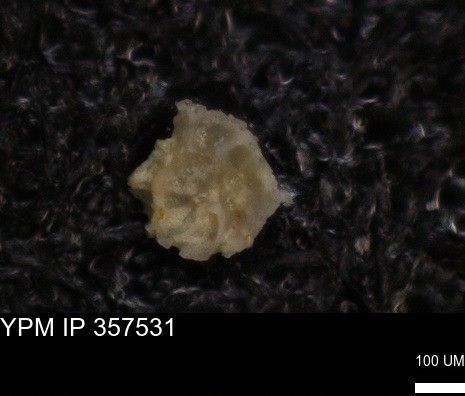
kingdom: Chromista
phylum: Foraminifera
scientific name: Foraminifera
